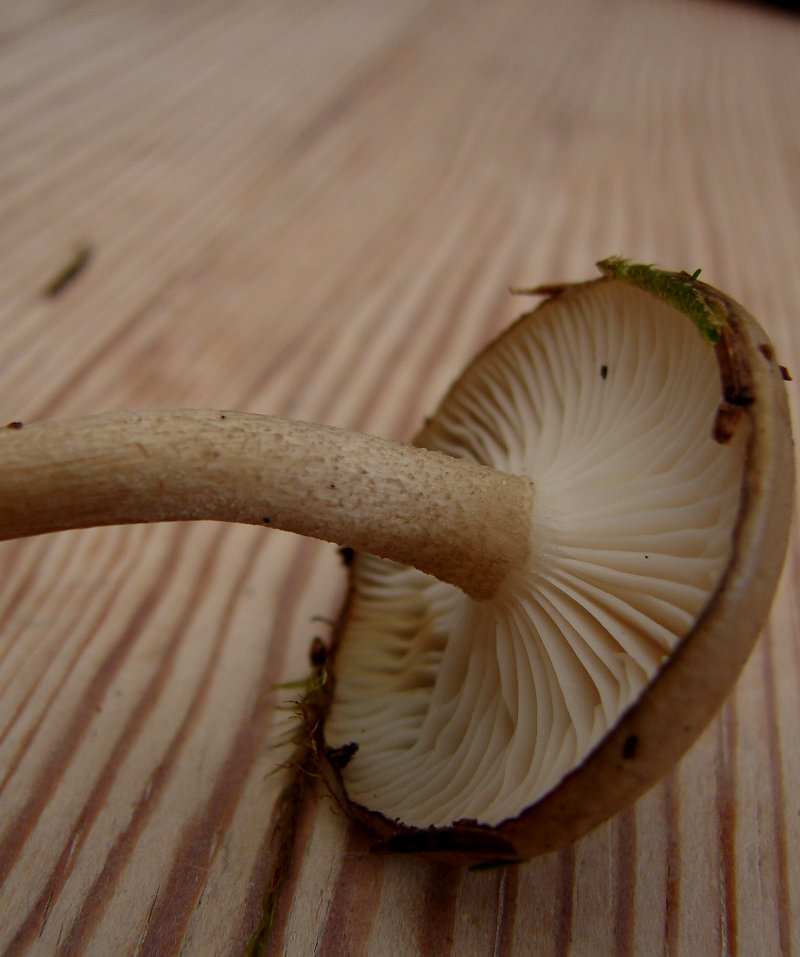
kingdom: Fungi
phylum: Basidiomycota
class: Agaricomycetes
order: Agaricales
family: Hygrophoraceae
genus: Hygrophorus
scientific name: Hygrophorus pustulatus
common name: mørkprikket sneglehat
